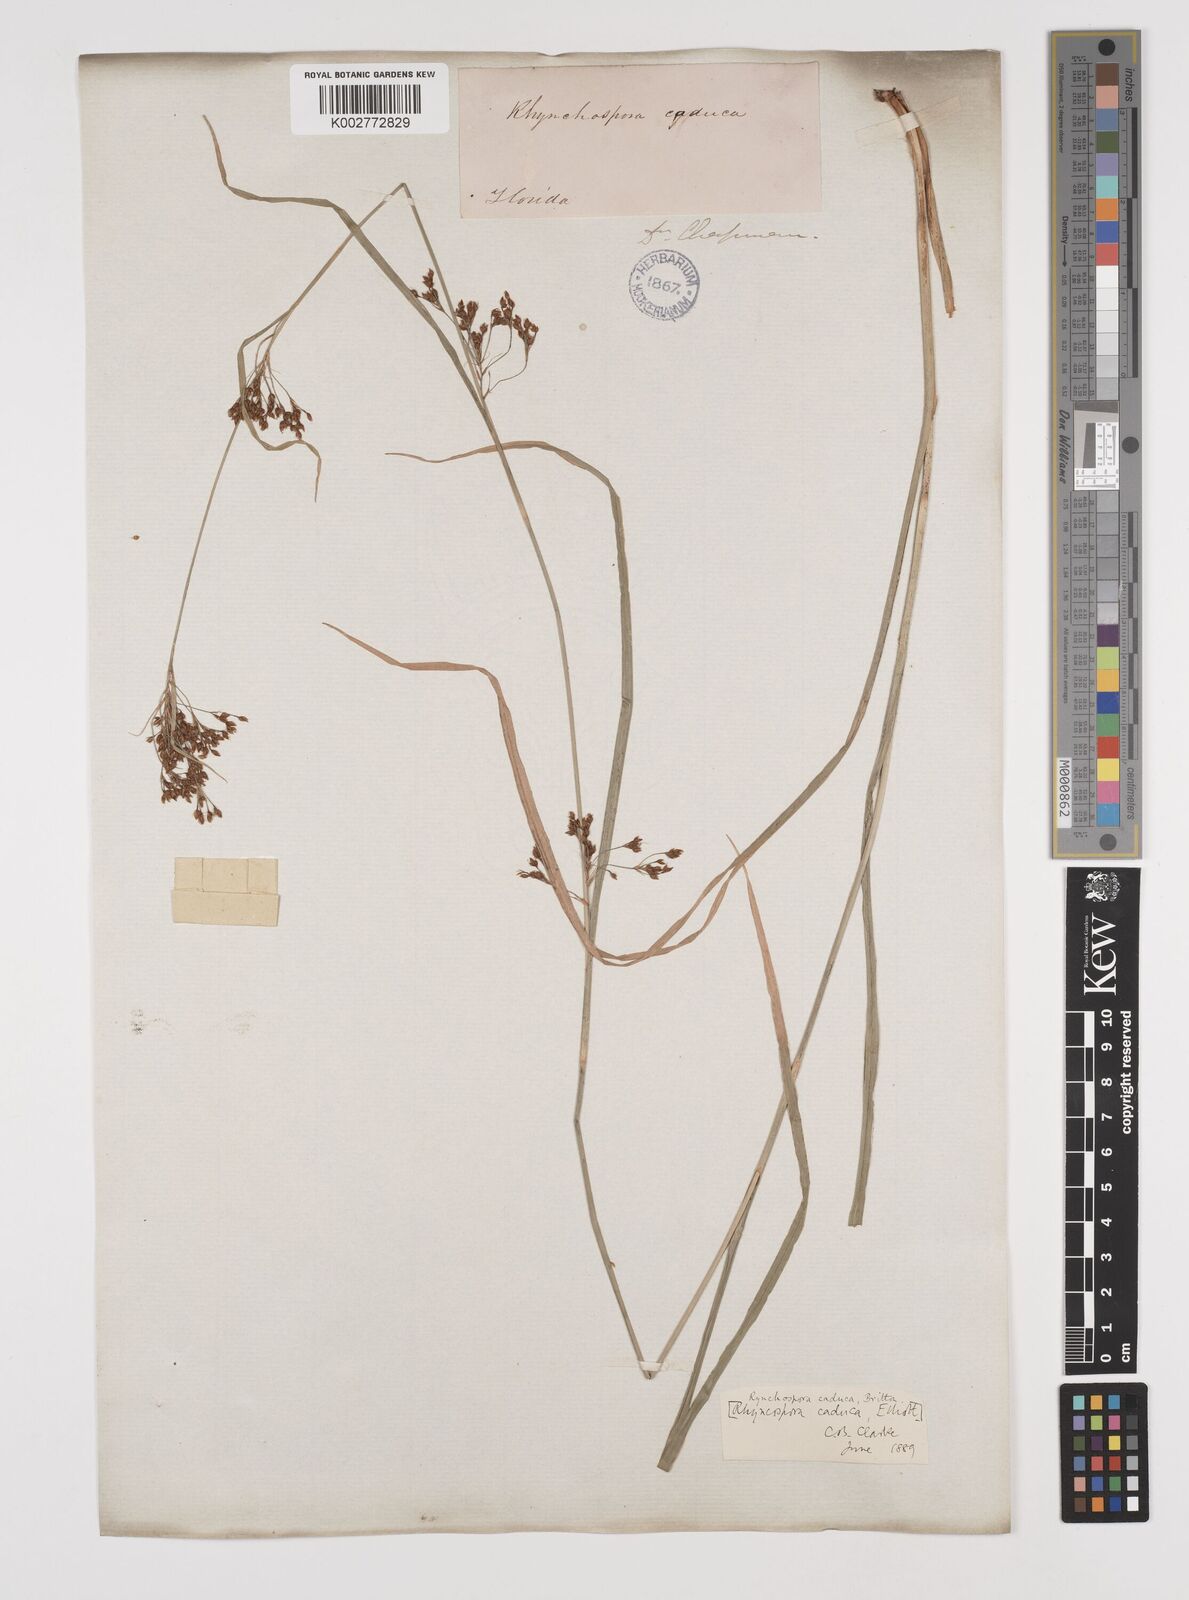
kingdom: Plantae
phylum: Tracheophyta
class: Liliopsida
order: Poales
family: Cyperaceae
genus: Rhynchospora
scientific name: Rhynchospora caduca
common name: Anglestem beaksedge
